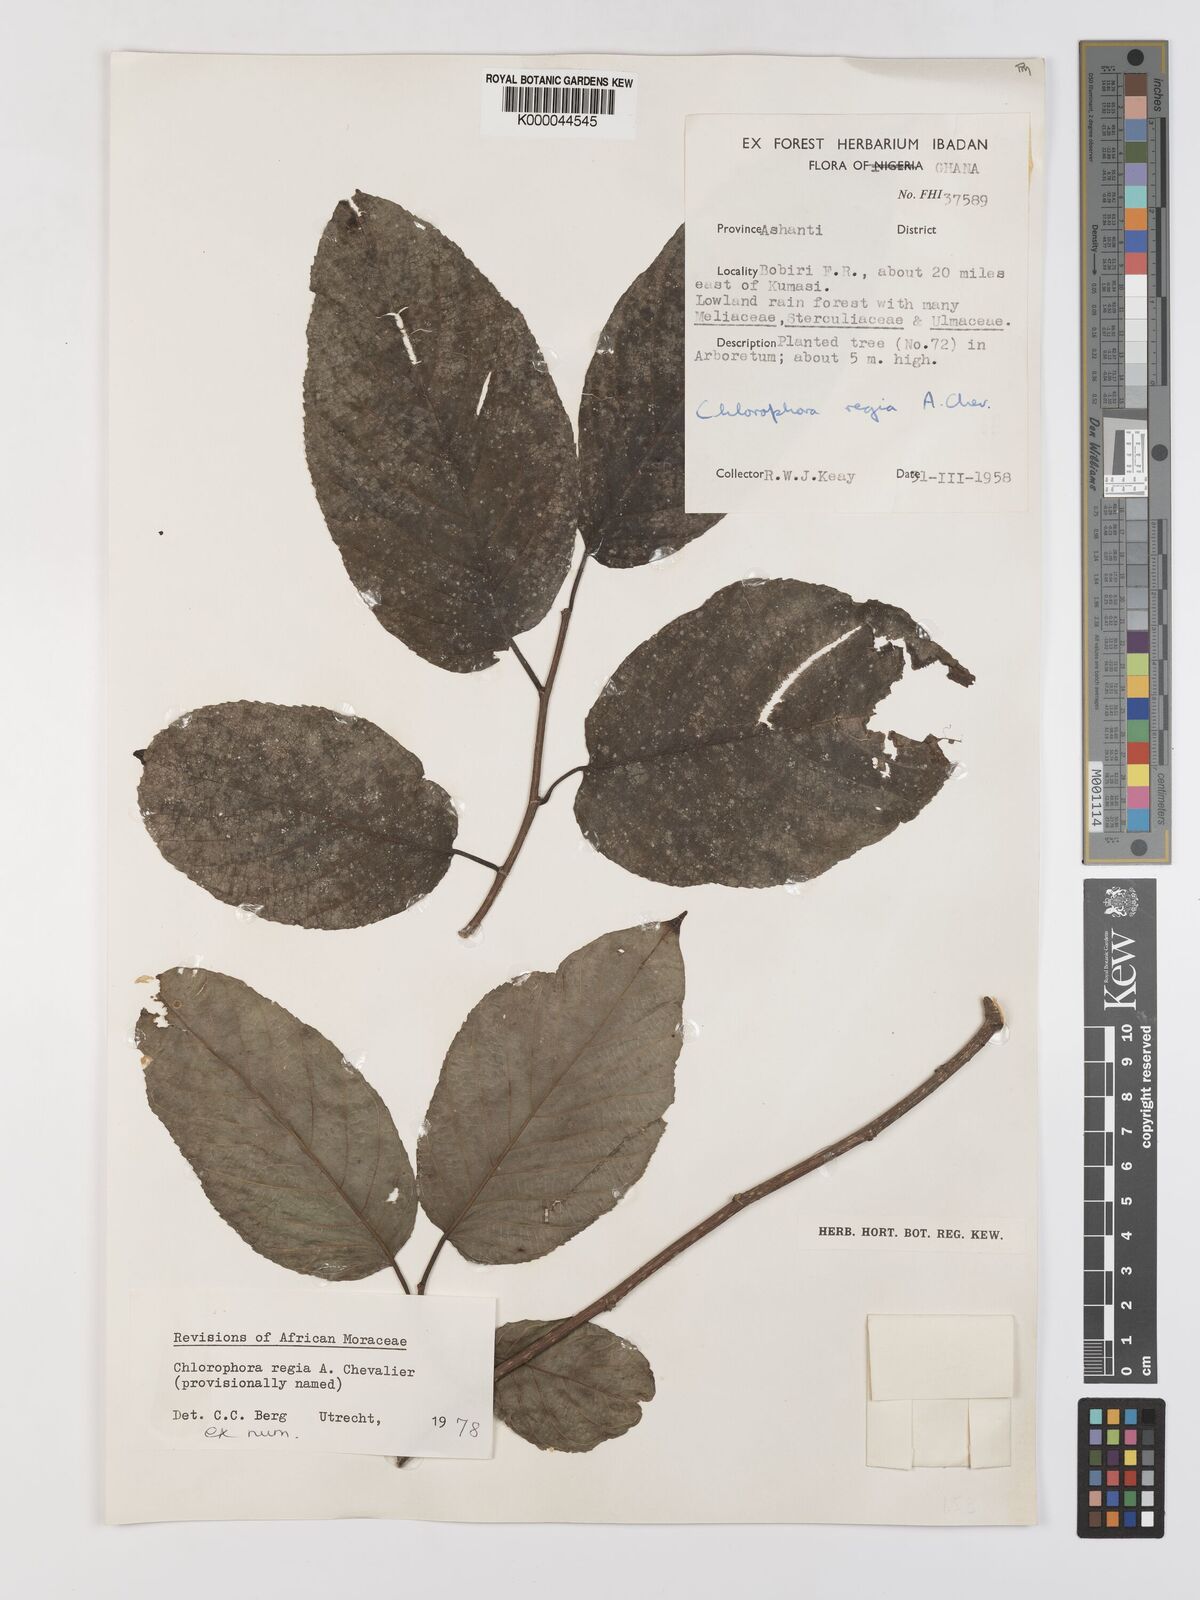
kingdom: Plantae
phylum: Tracheophyta
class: Magnoliopsida
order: Rosales
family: Moraceae
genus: Milicia
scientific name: Milicia regia
